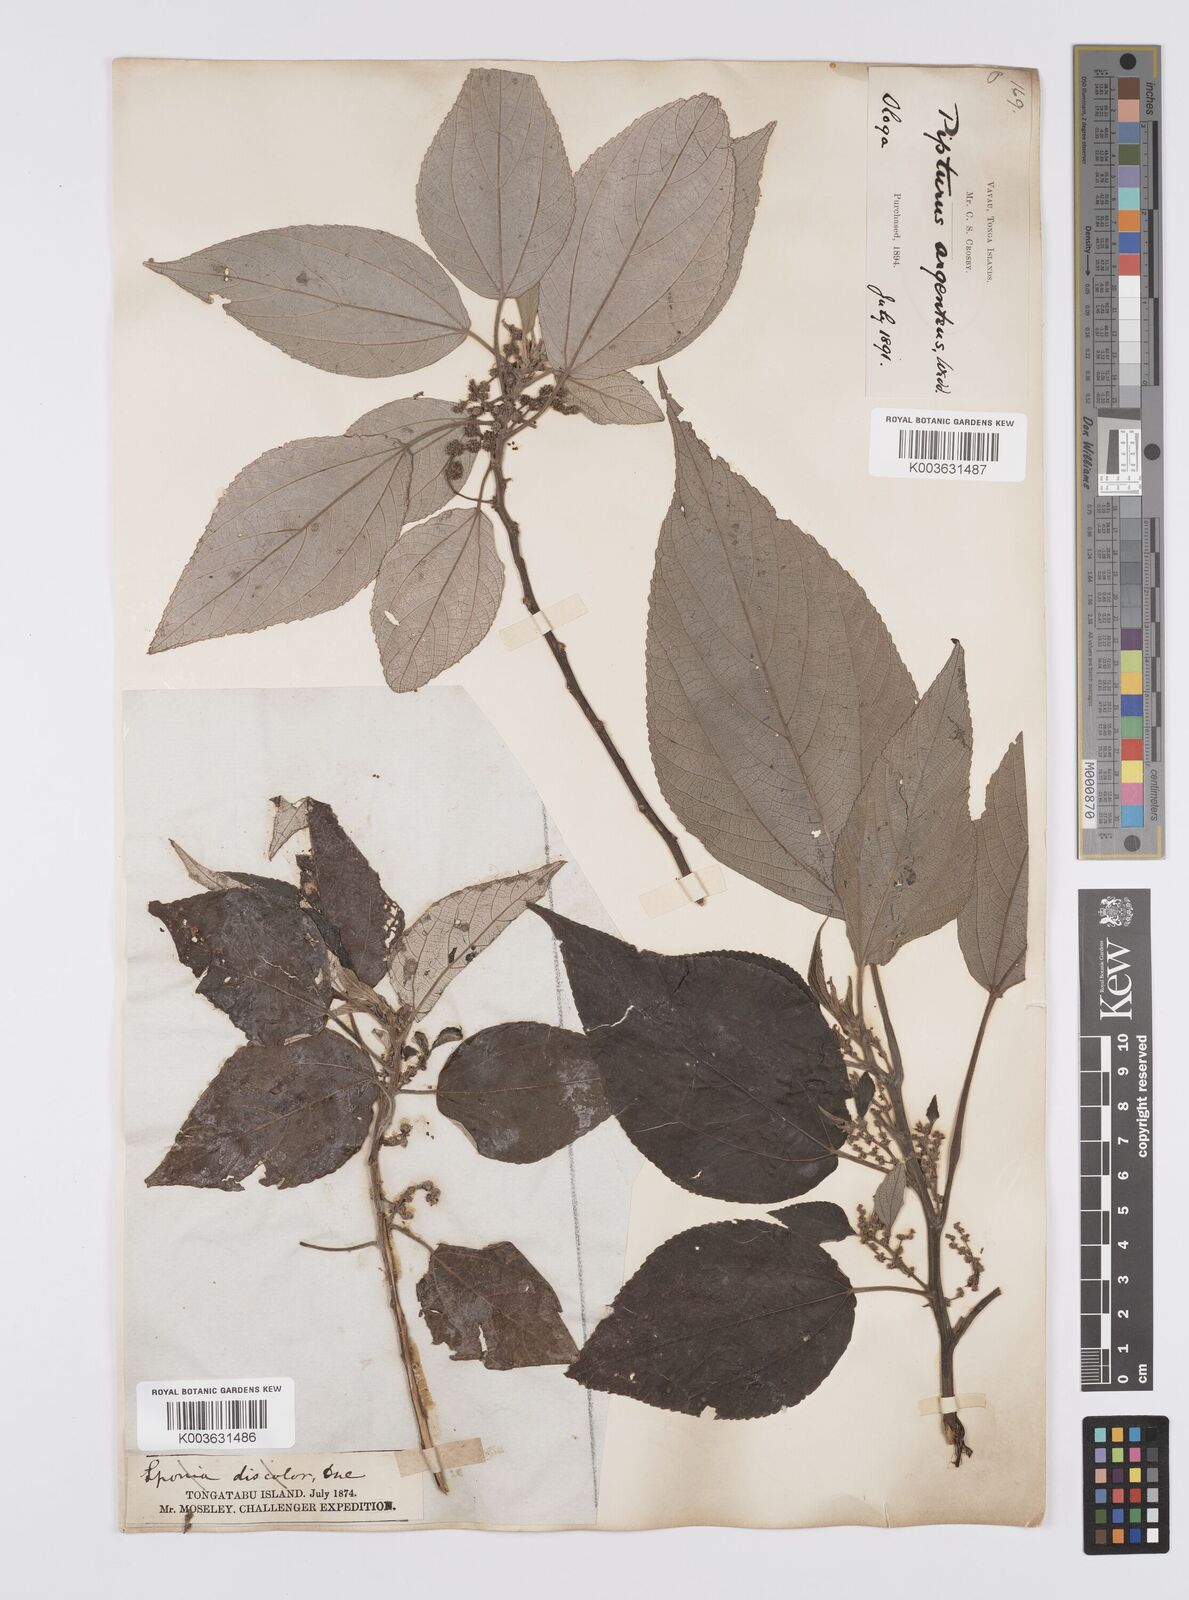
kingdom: Plantae
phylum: Tracheophyta
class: Magnoliopsida
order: Rosales
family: Urticaceae
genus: Pipturus
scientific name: Pipturus argenteus
